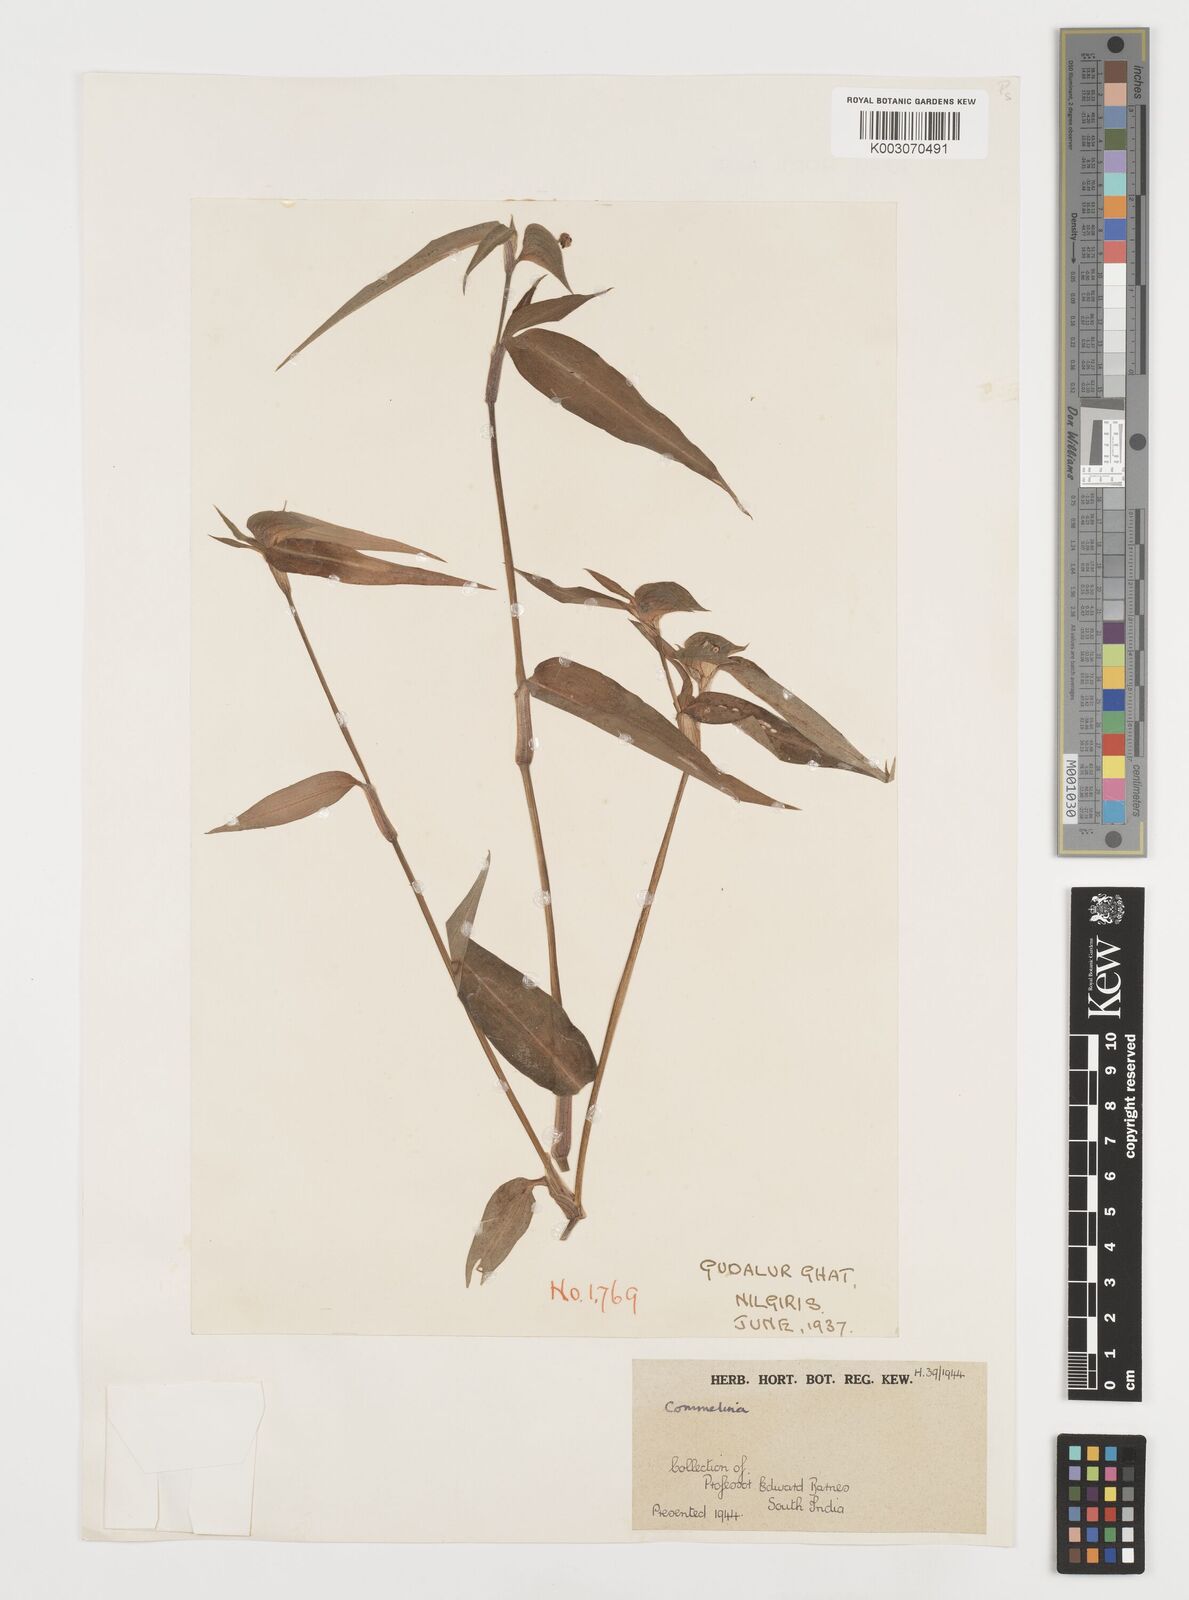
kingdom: Plantae
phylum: Tracheophyta
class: Liliopsida
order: Commelinales
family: Commelinaceae
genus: Commelina
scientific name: Commelina
